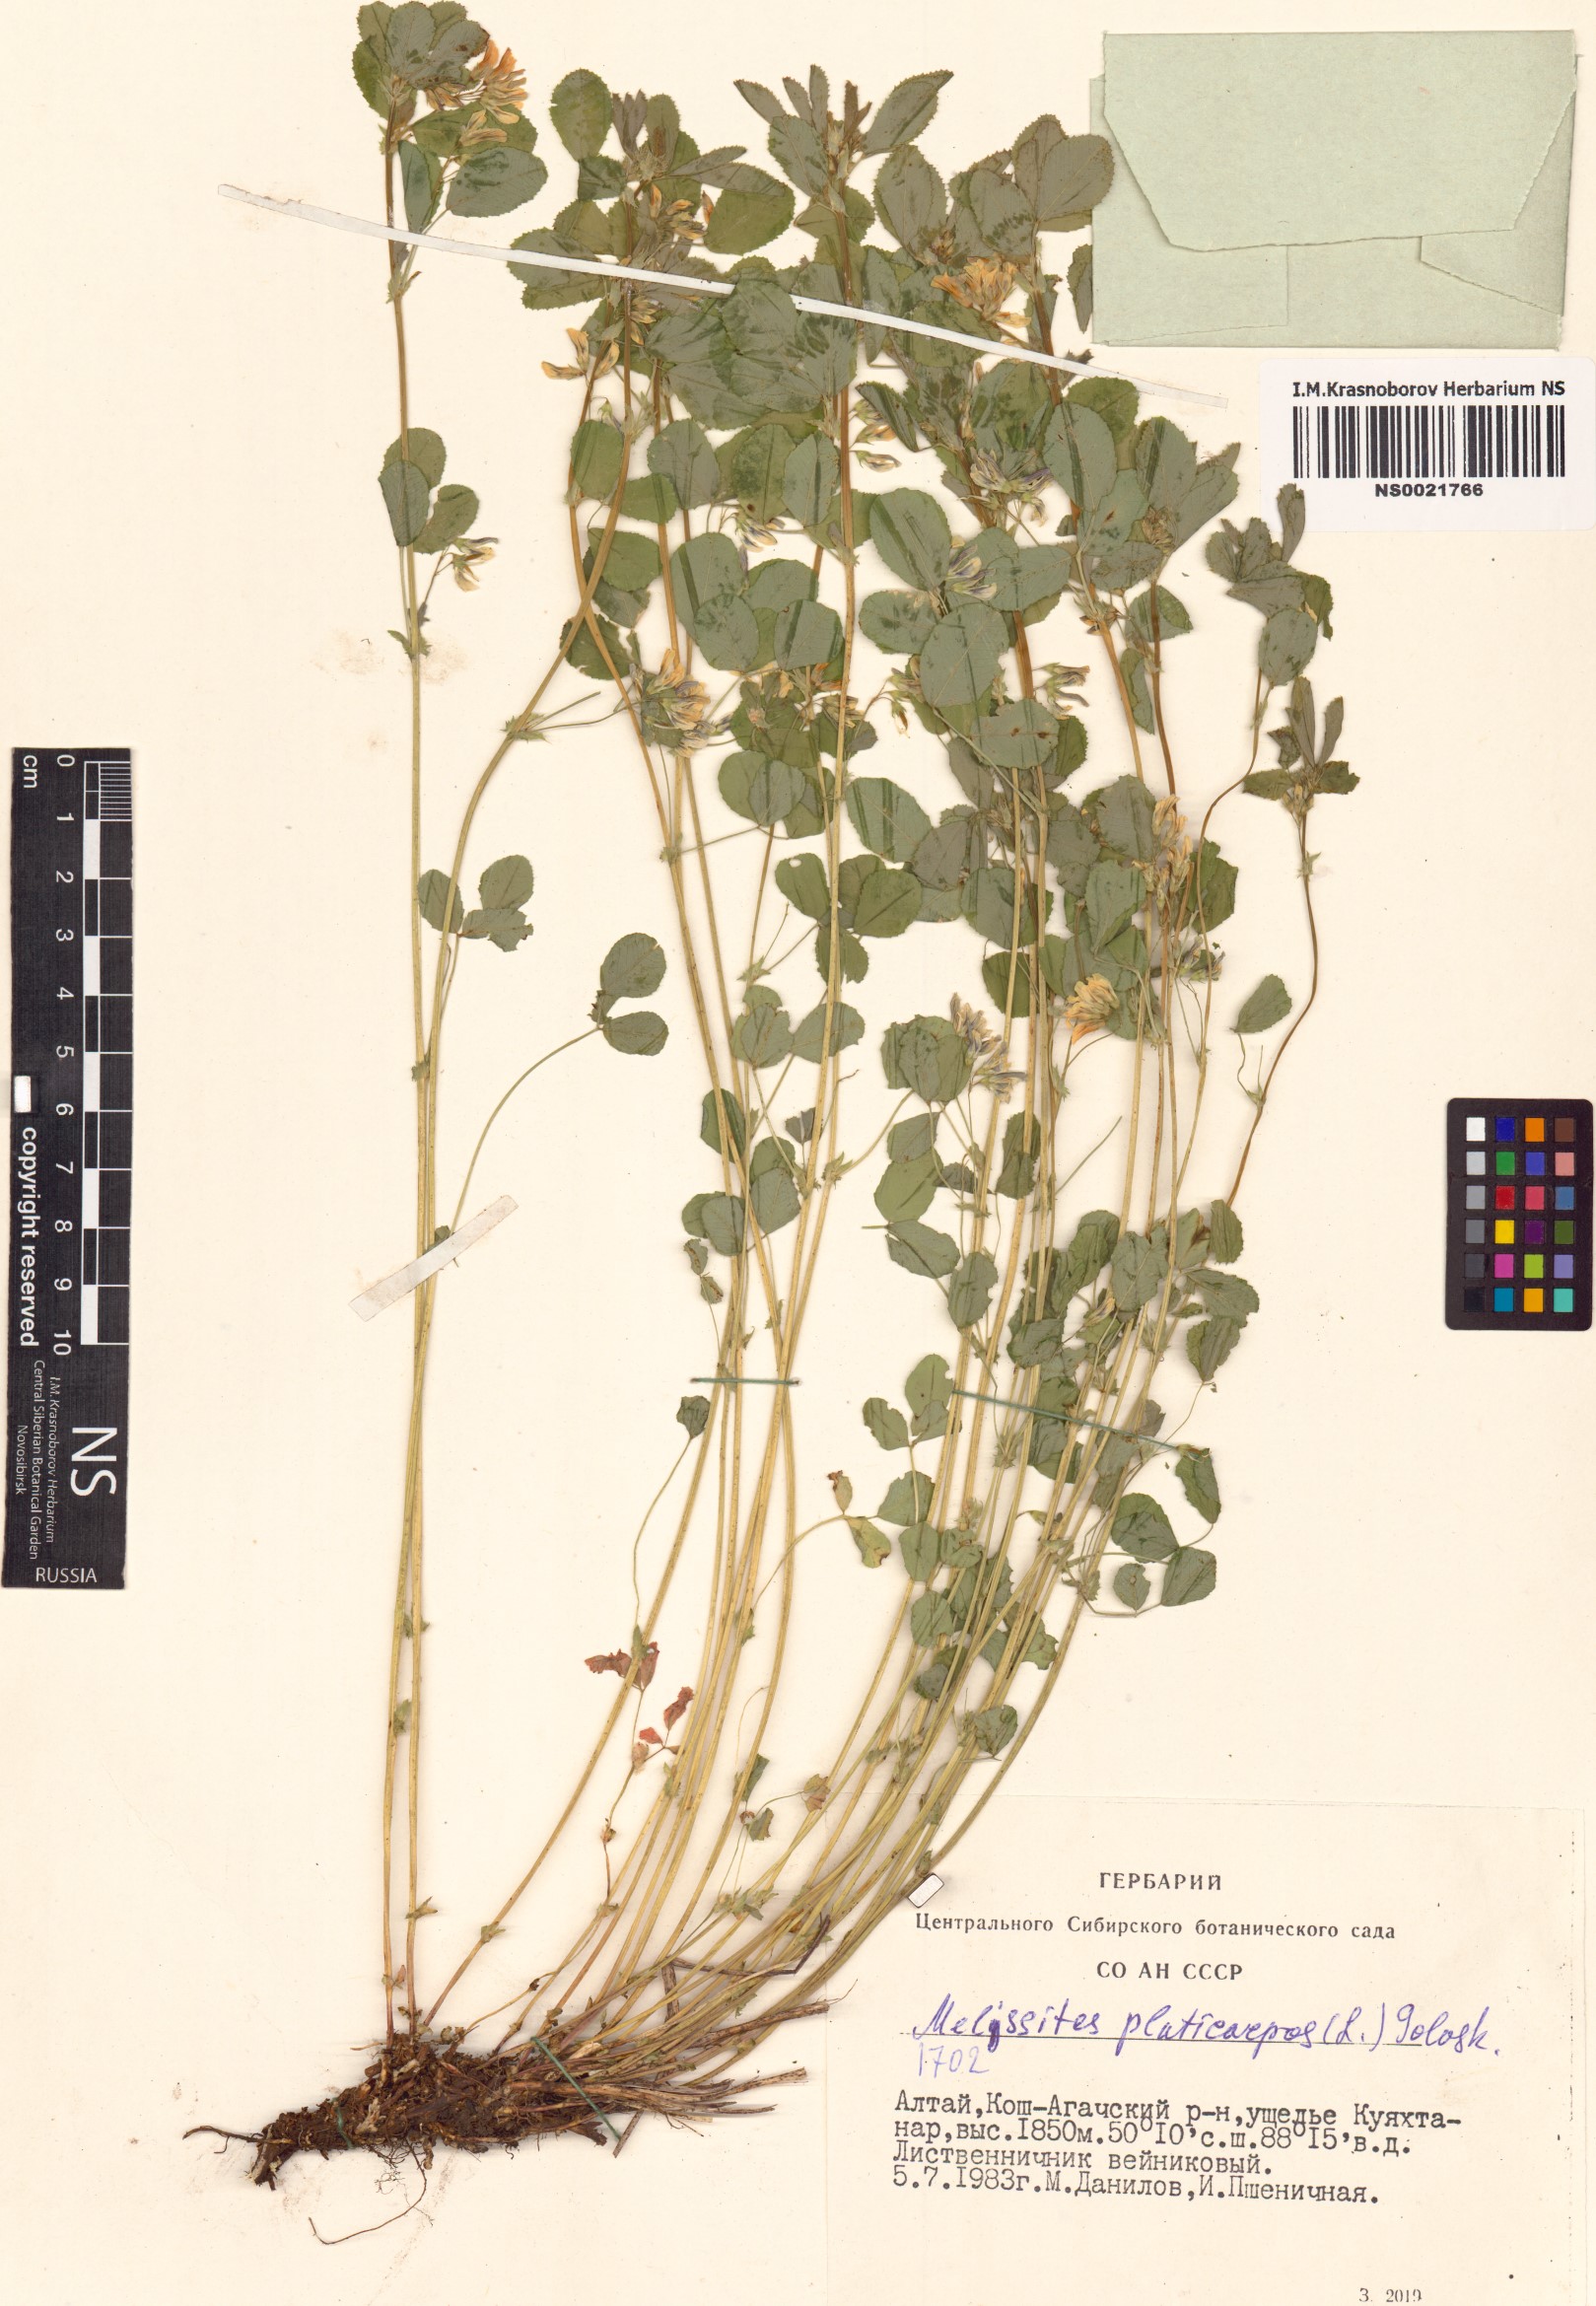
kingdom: Plantae
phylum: Tracheophyta
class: Magnoliopsida
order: Fabales
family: Fabaceae
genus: Medicago
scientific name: Medicago platycarpos
